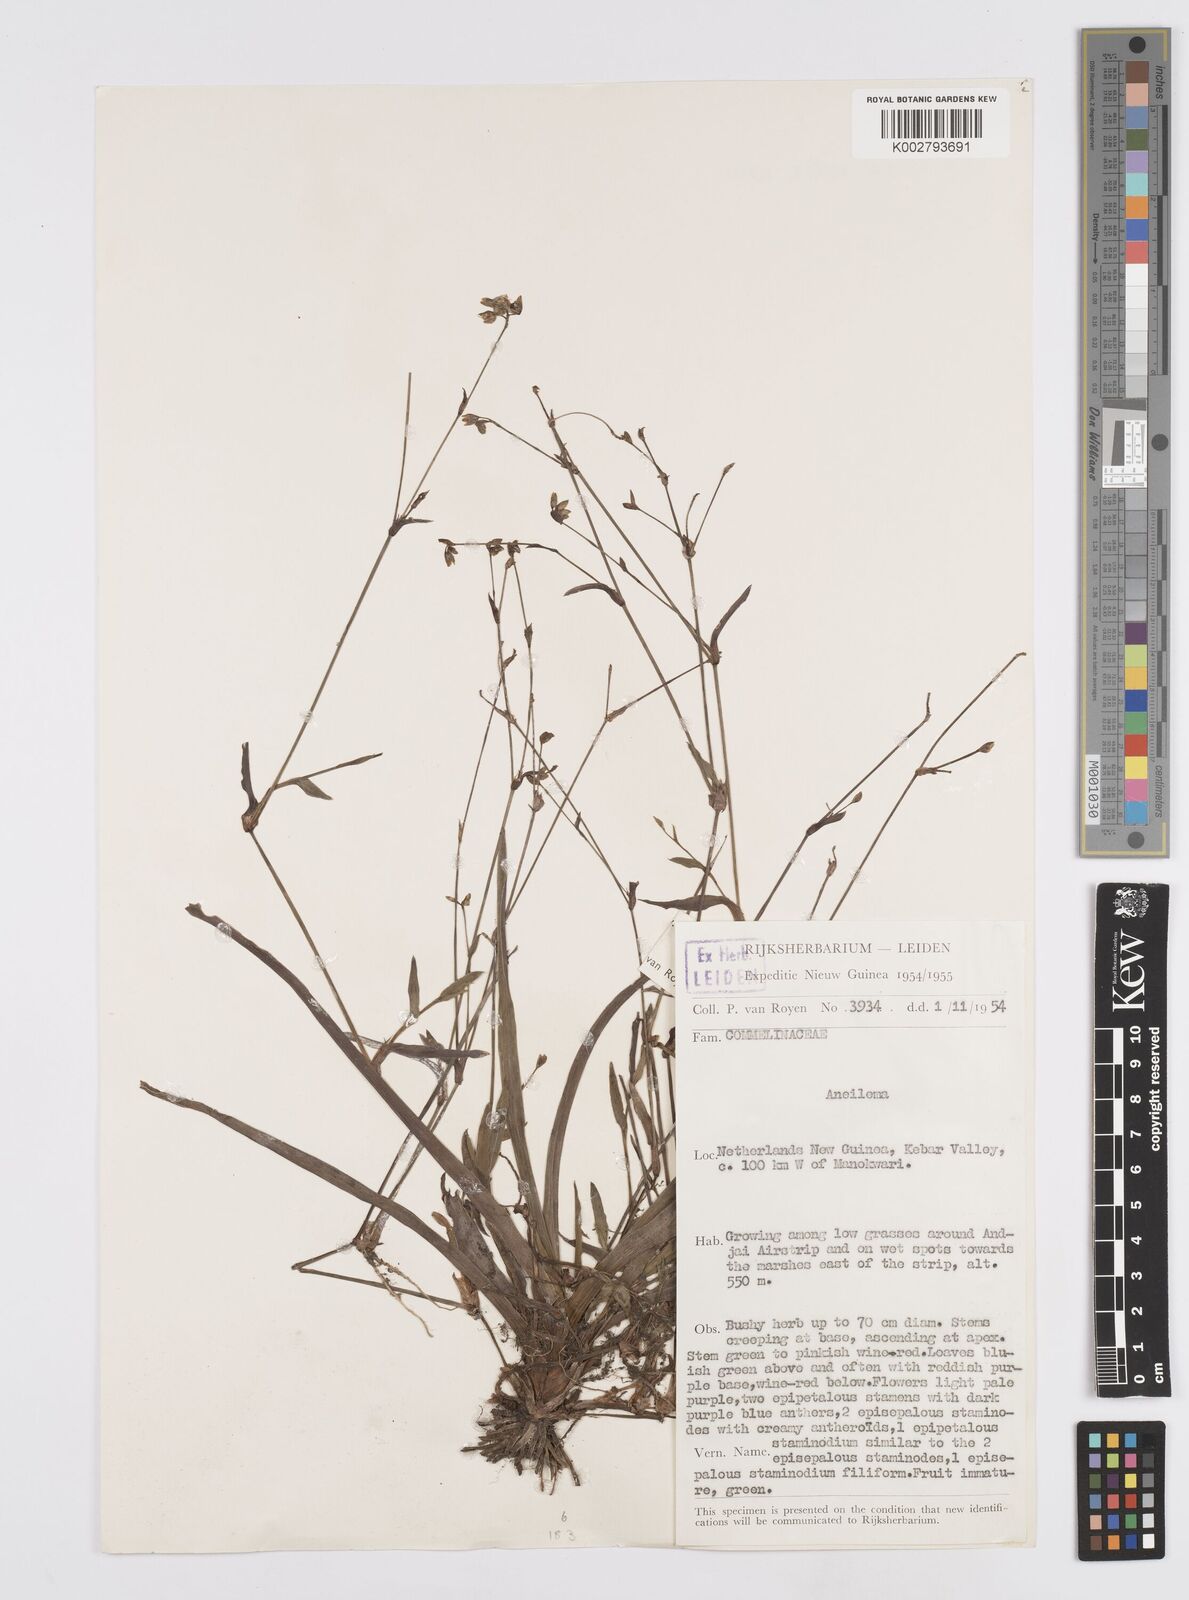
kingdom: Plantae
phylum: Tracheophyta
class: Liliopsida
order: Commelinales
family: Commelinaceae
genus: Murdannia
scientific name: Murdannia
